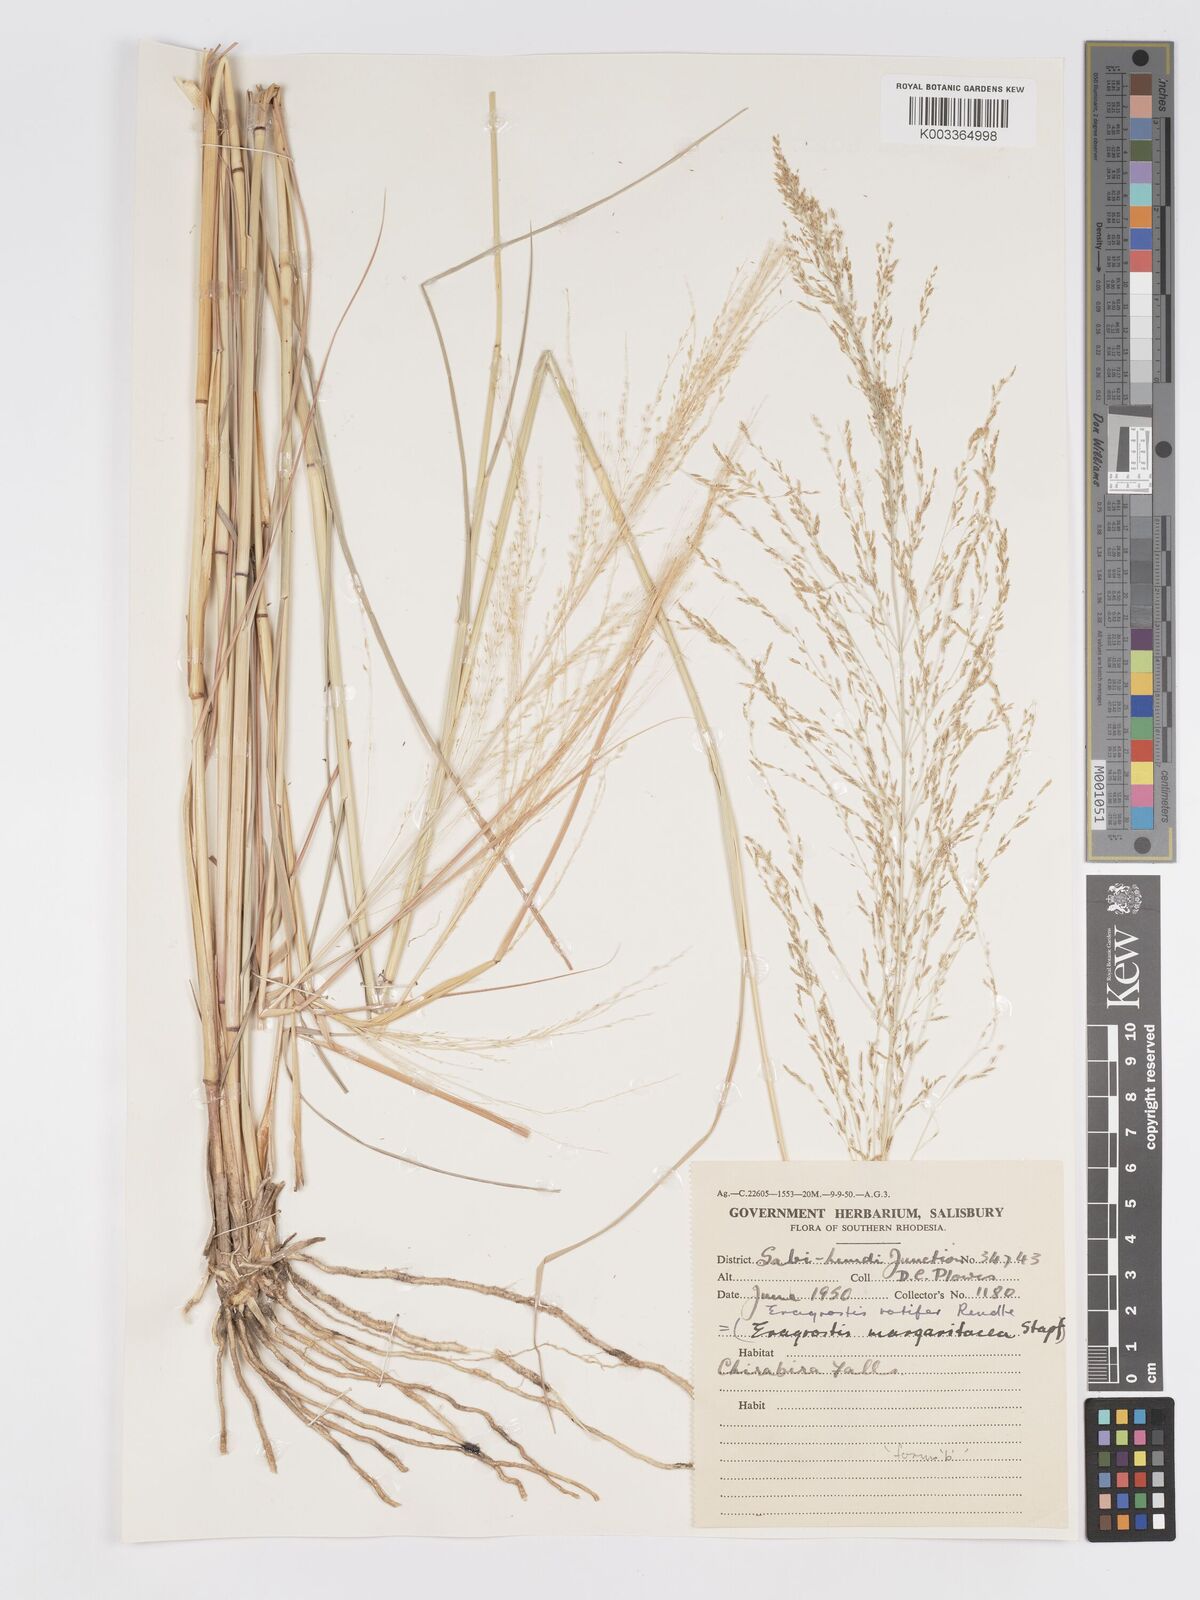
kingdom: Plantae
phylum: Tracheophyta
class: Liliopsida
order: Poales
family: Poaceae
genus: Eragrostis
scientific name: Eragrostis rotifer
